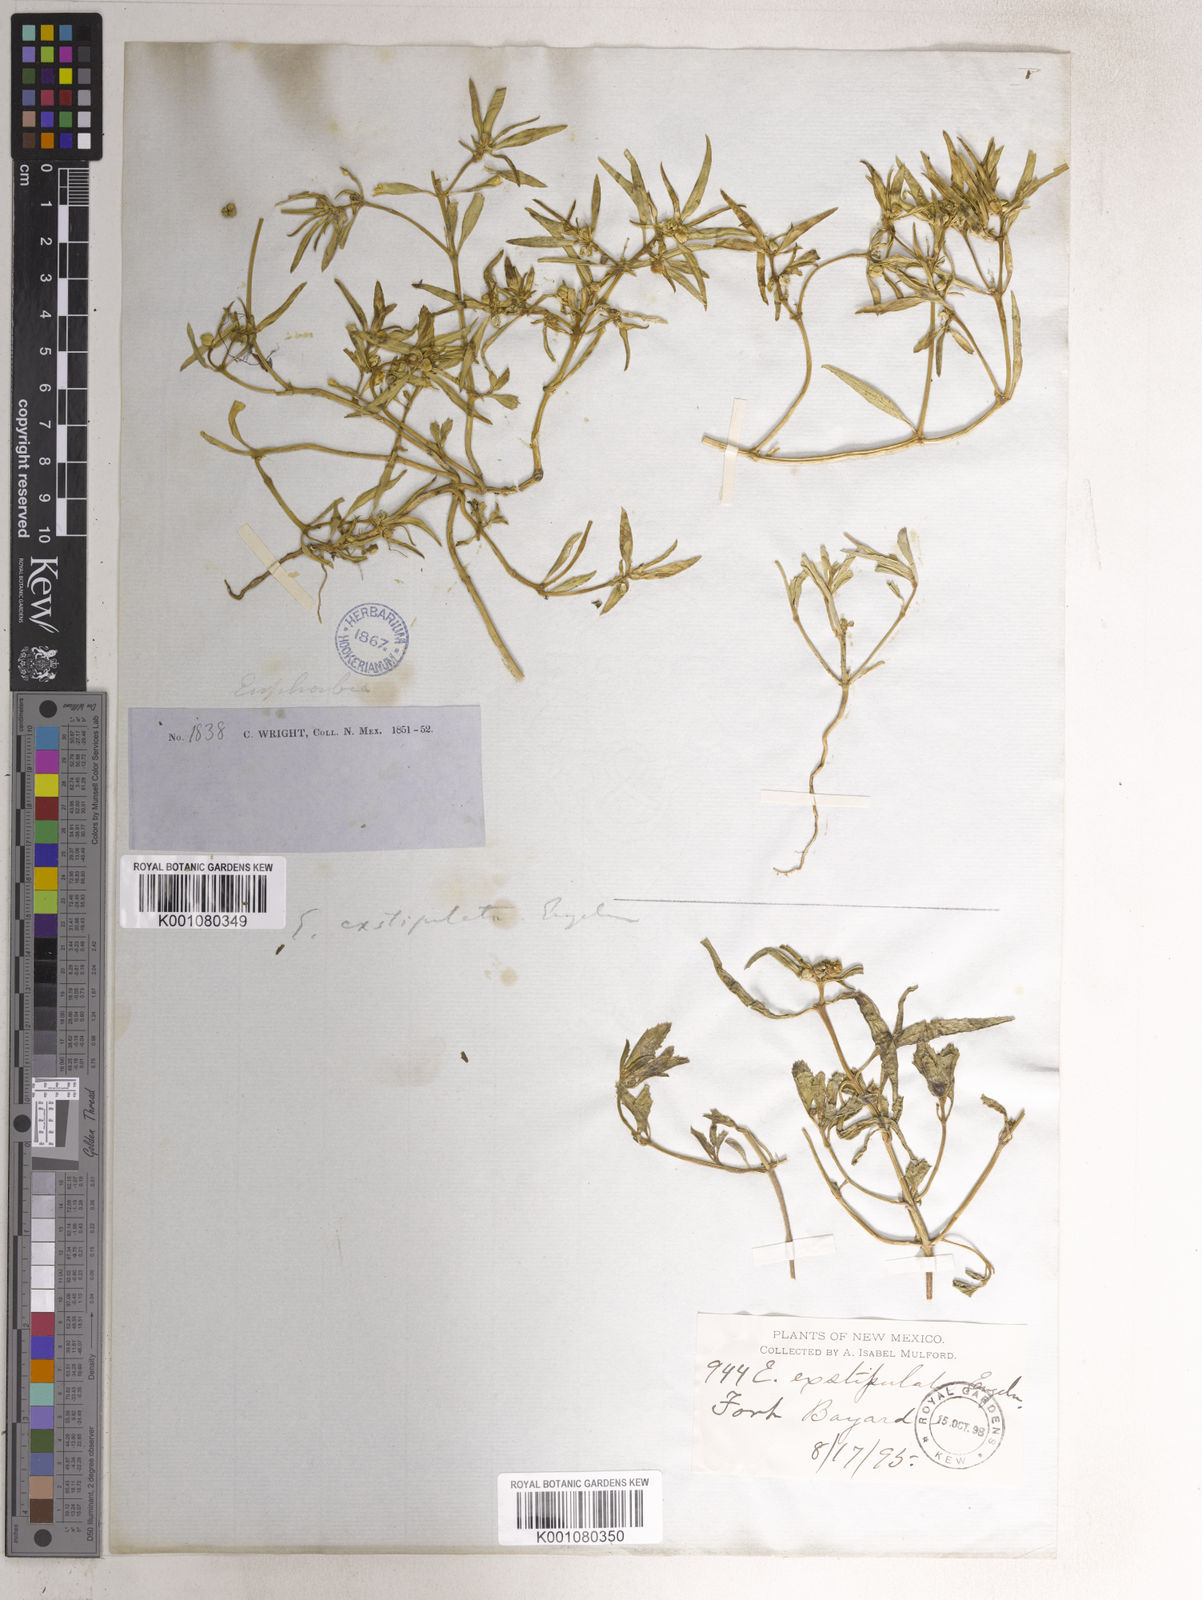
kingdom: Plantae
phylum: Tracheophyta
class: Magnoliopsida
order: Malpighiales
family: Euphorbiaceae
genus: Euphorbia
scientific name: Euphorbia exstipulata
